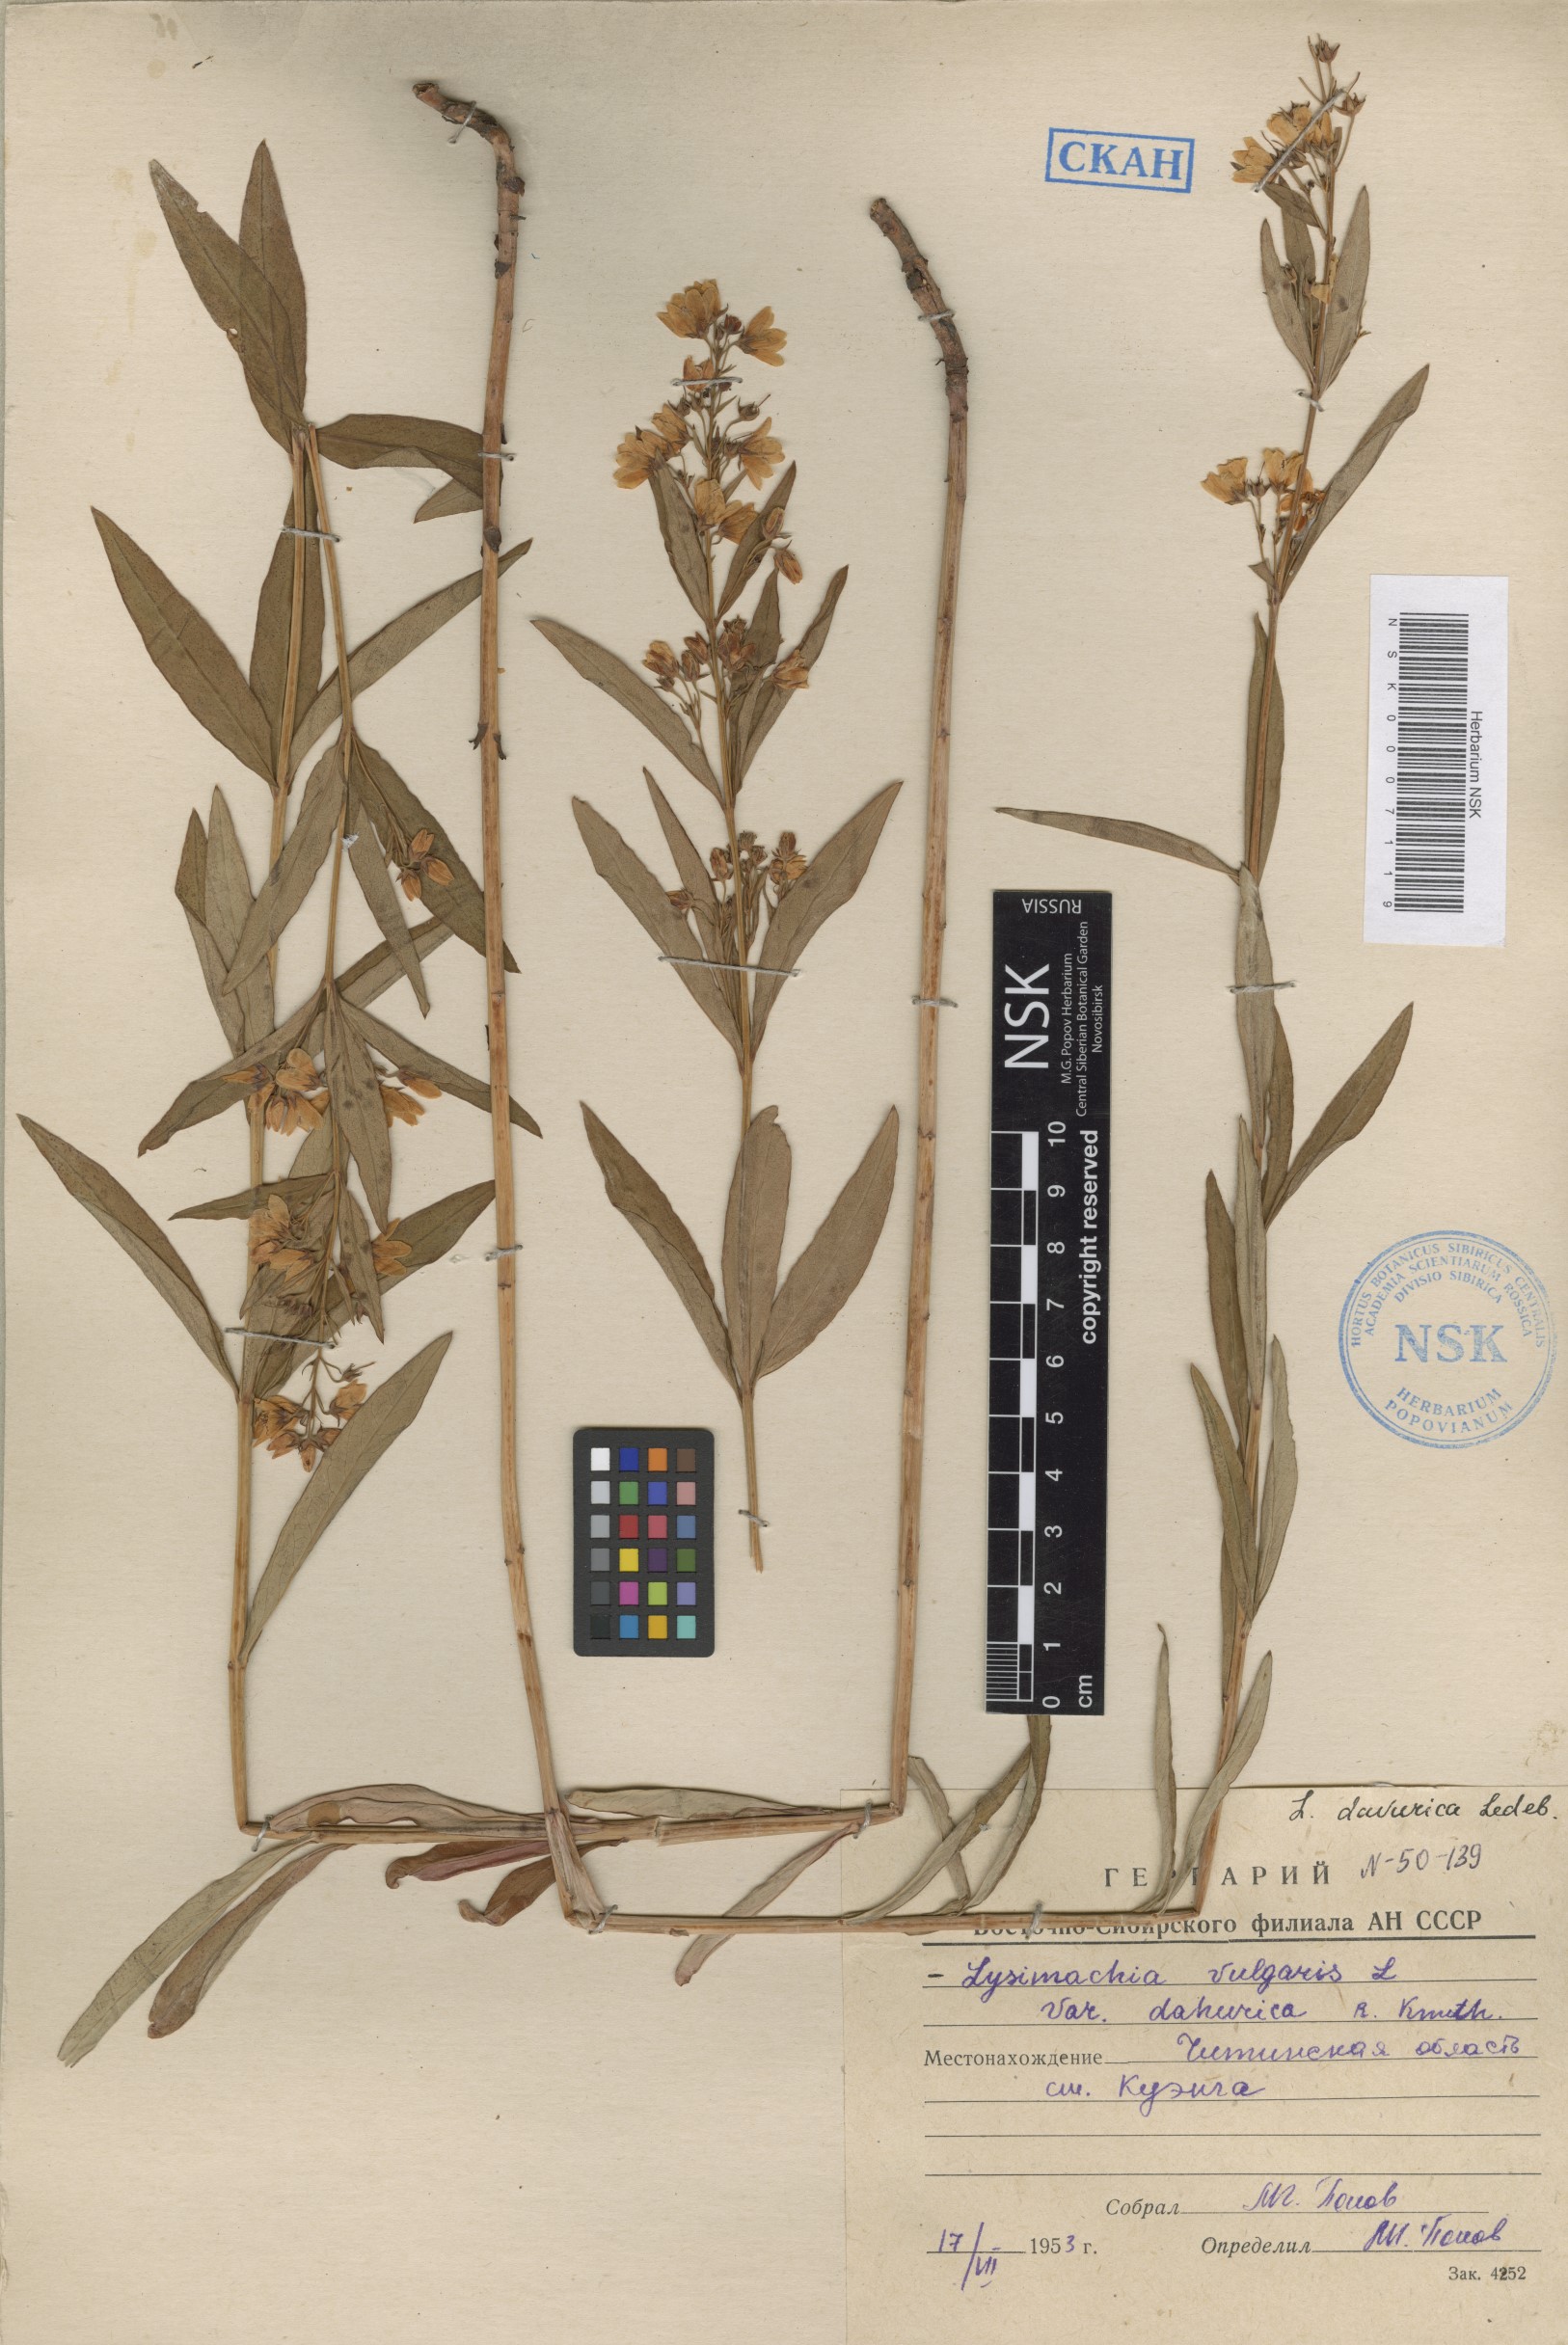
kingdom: Plantae
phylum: Tracheophyta
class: Magnoliopsida
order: Ericales
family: Primulaceae
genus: Lysimachia
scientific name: Lysimachia davurica
